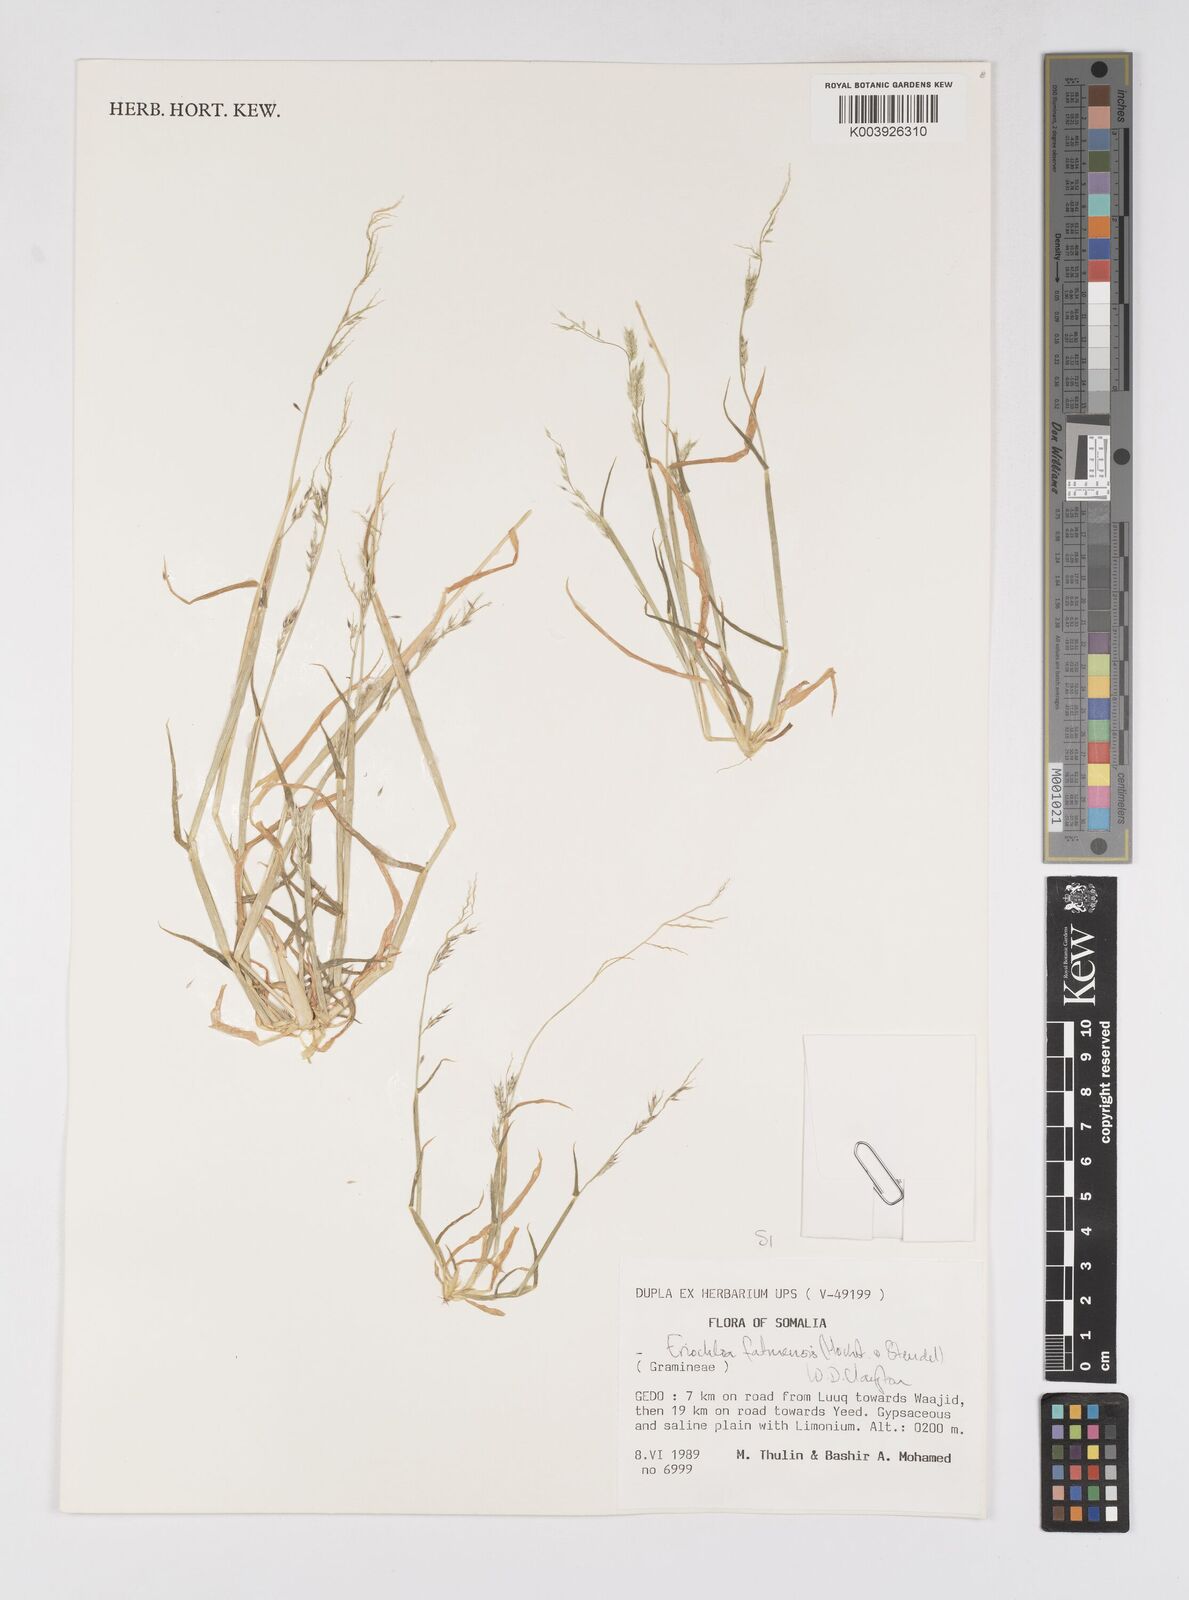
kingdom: Plantae
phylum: Tracheophyta
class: Liliopsida
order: Poales
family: Poaceae
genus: Eriochloa
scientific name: Eriochloa barbatus
